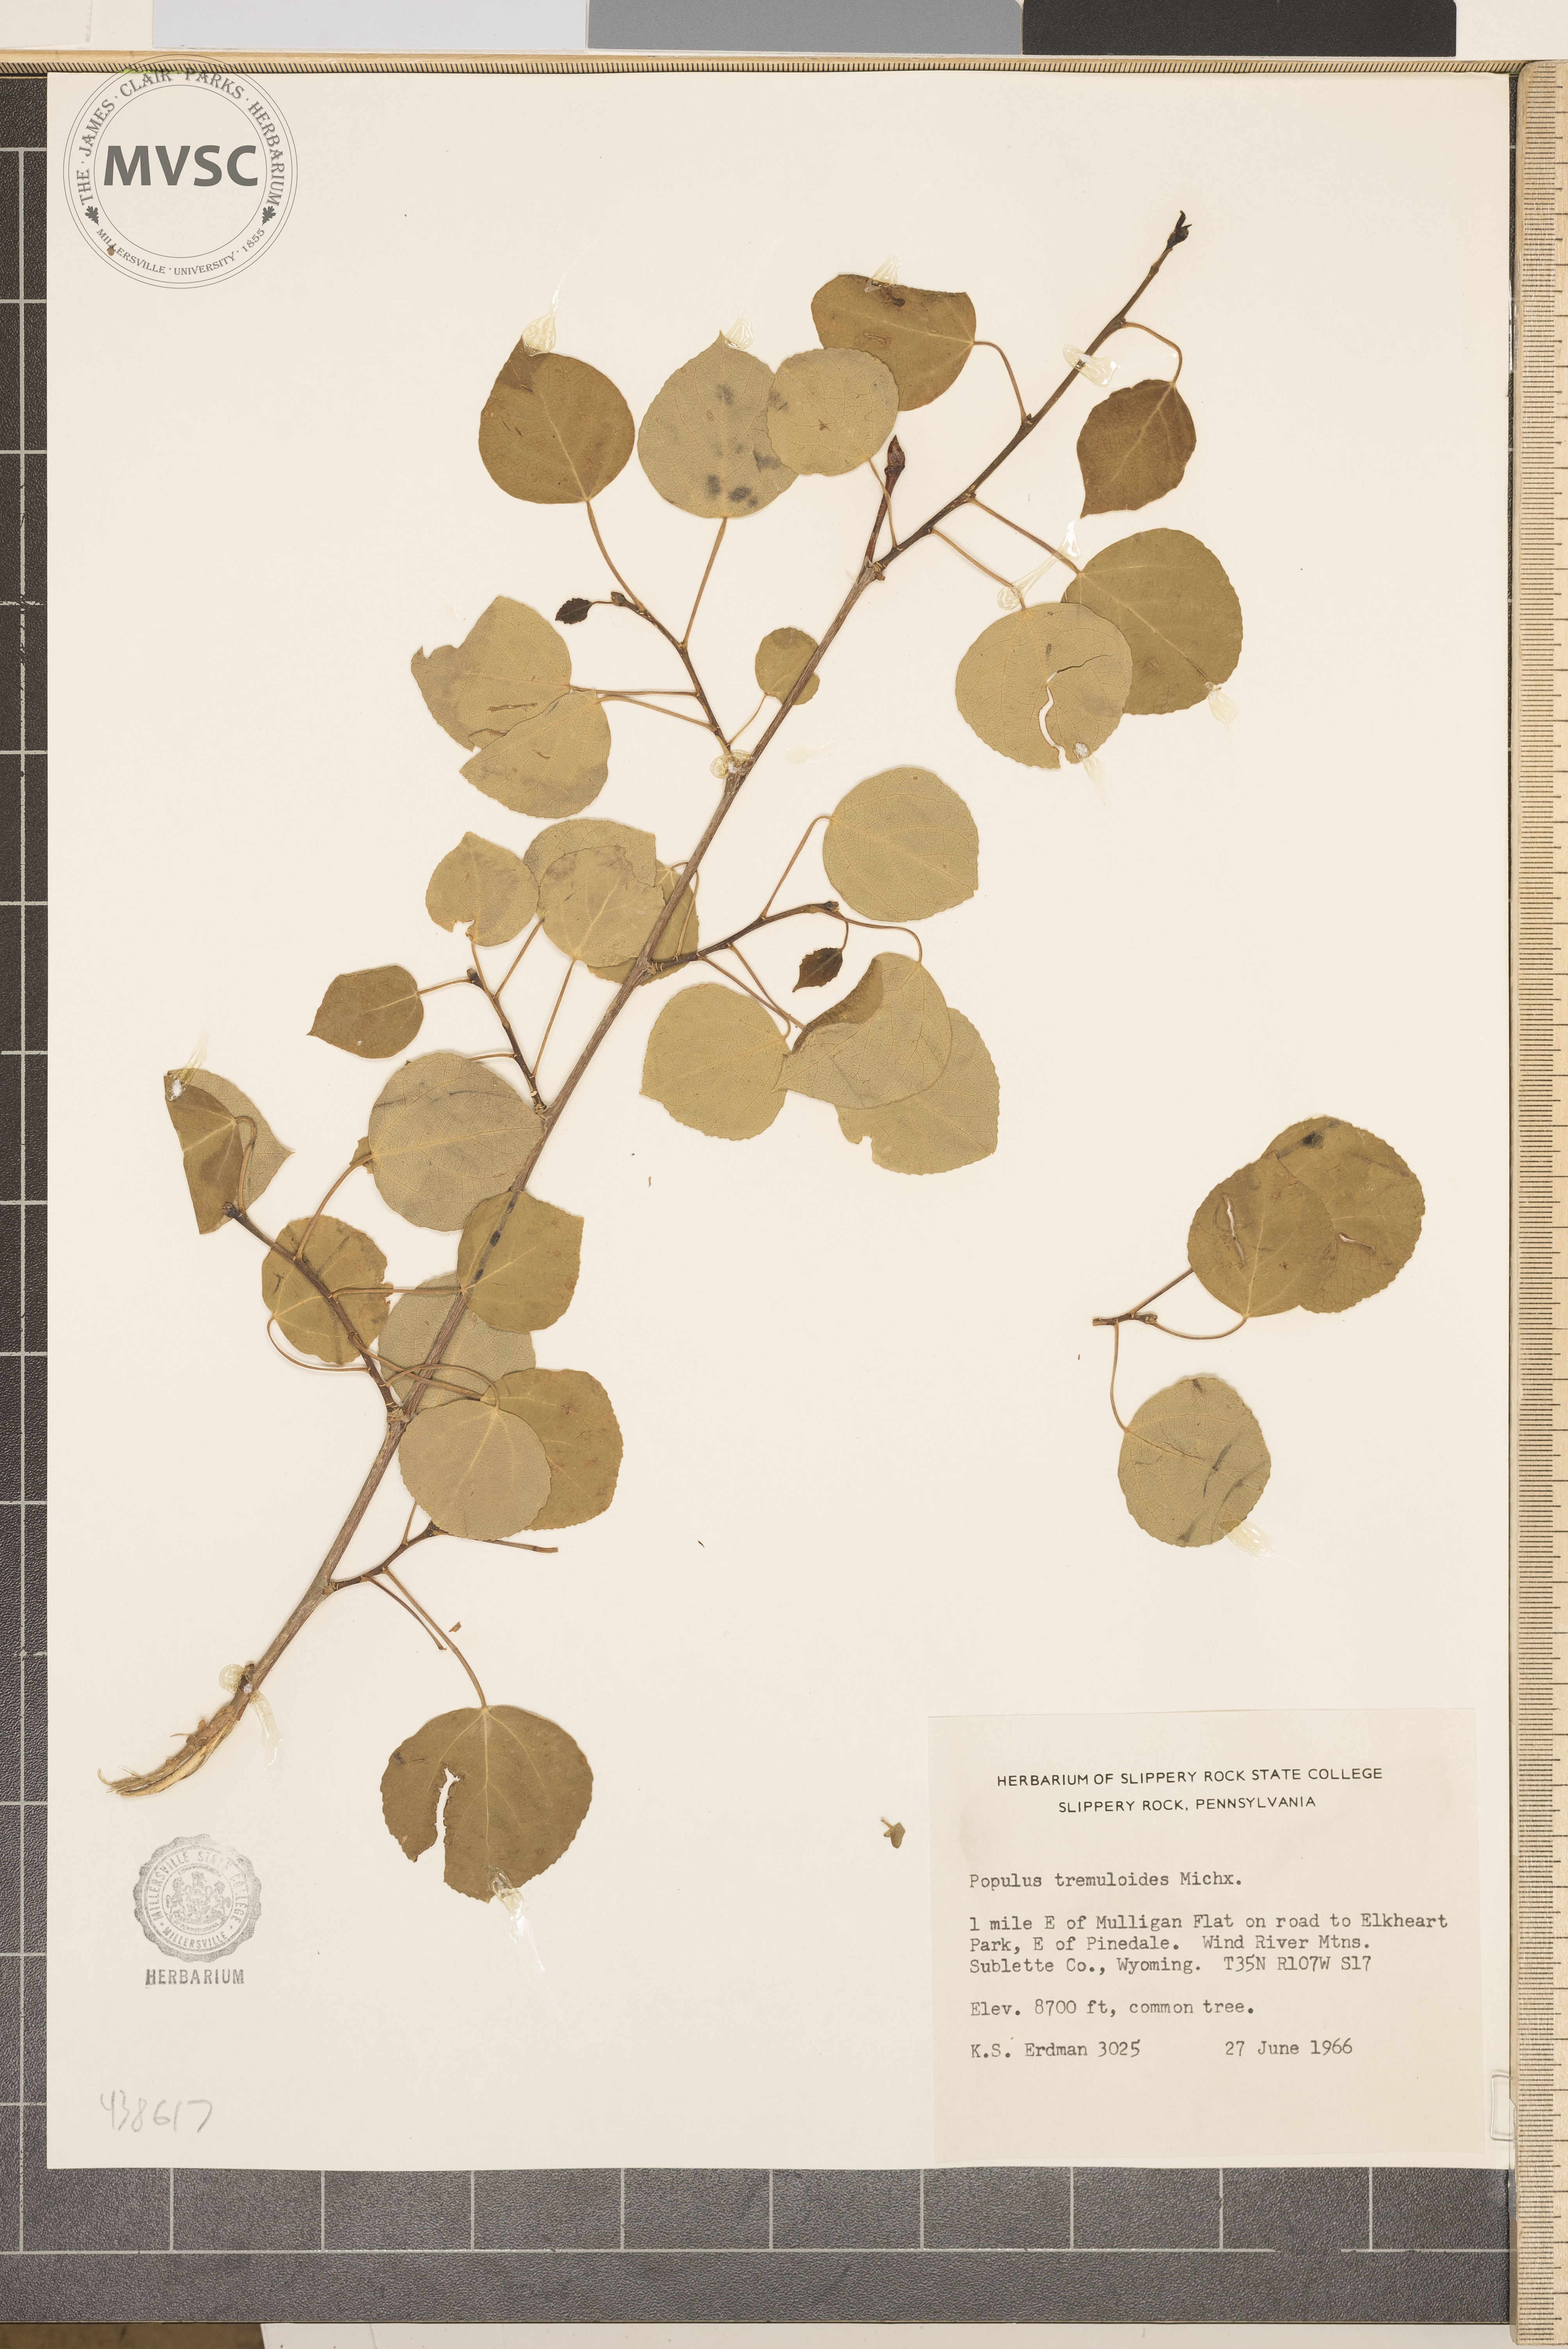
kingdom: Plantae
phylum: Tracheophyta
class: Magnoliopsida
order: Malpighiales
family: Salicaceae
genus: Populus
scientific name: Populus tremuloides
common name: Quaking aspen
